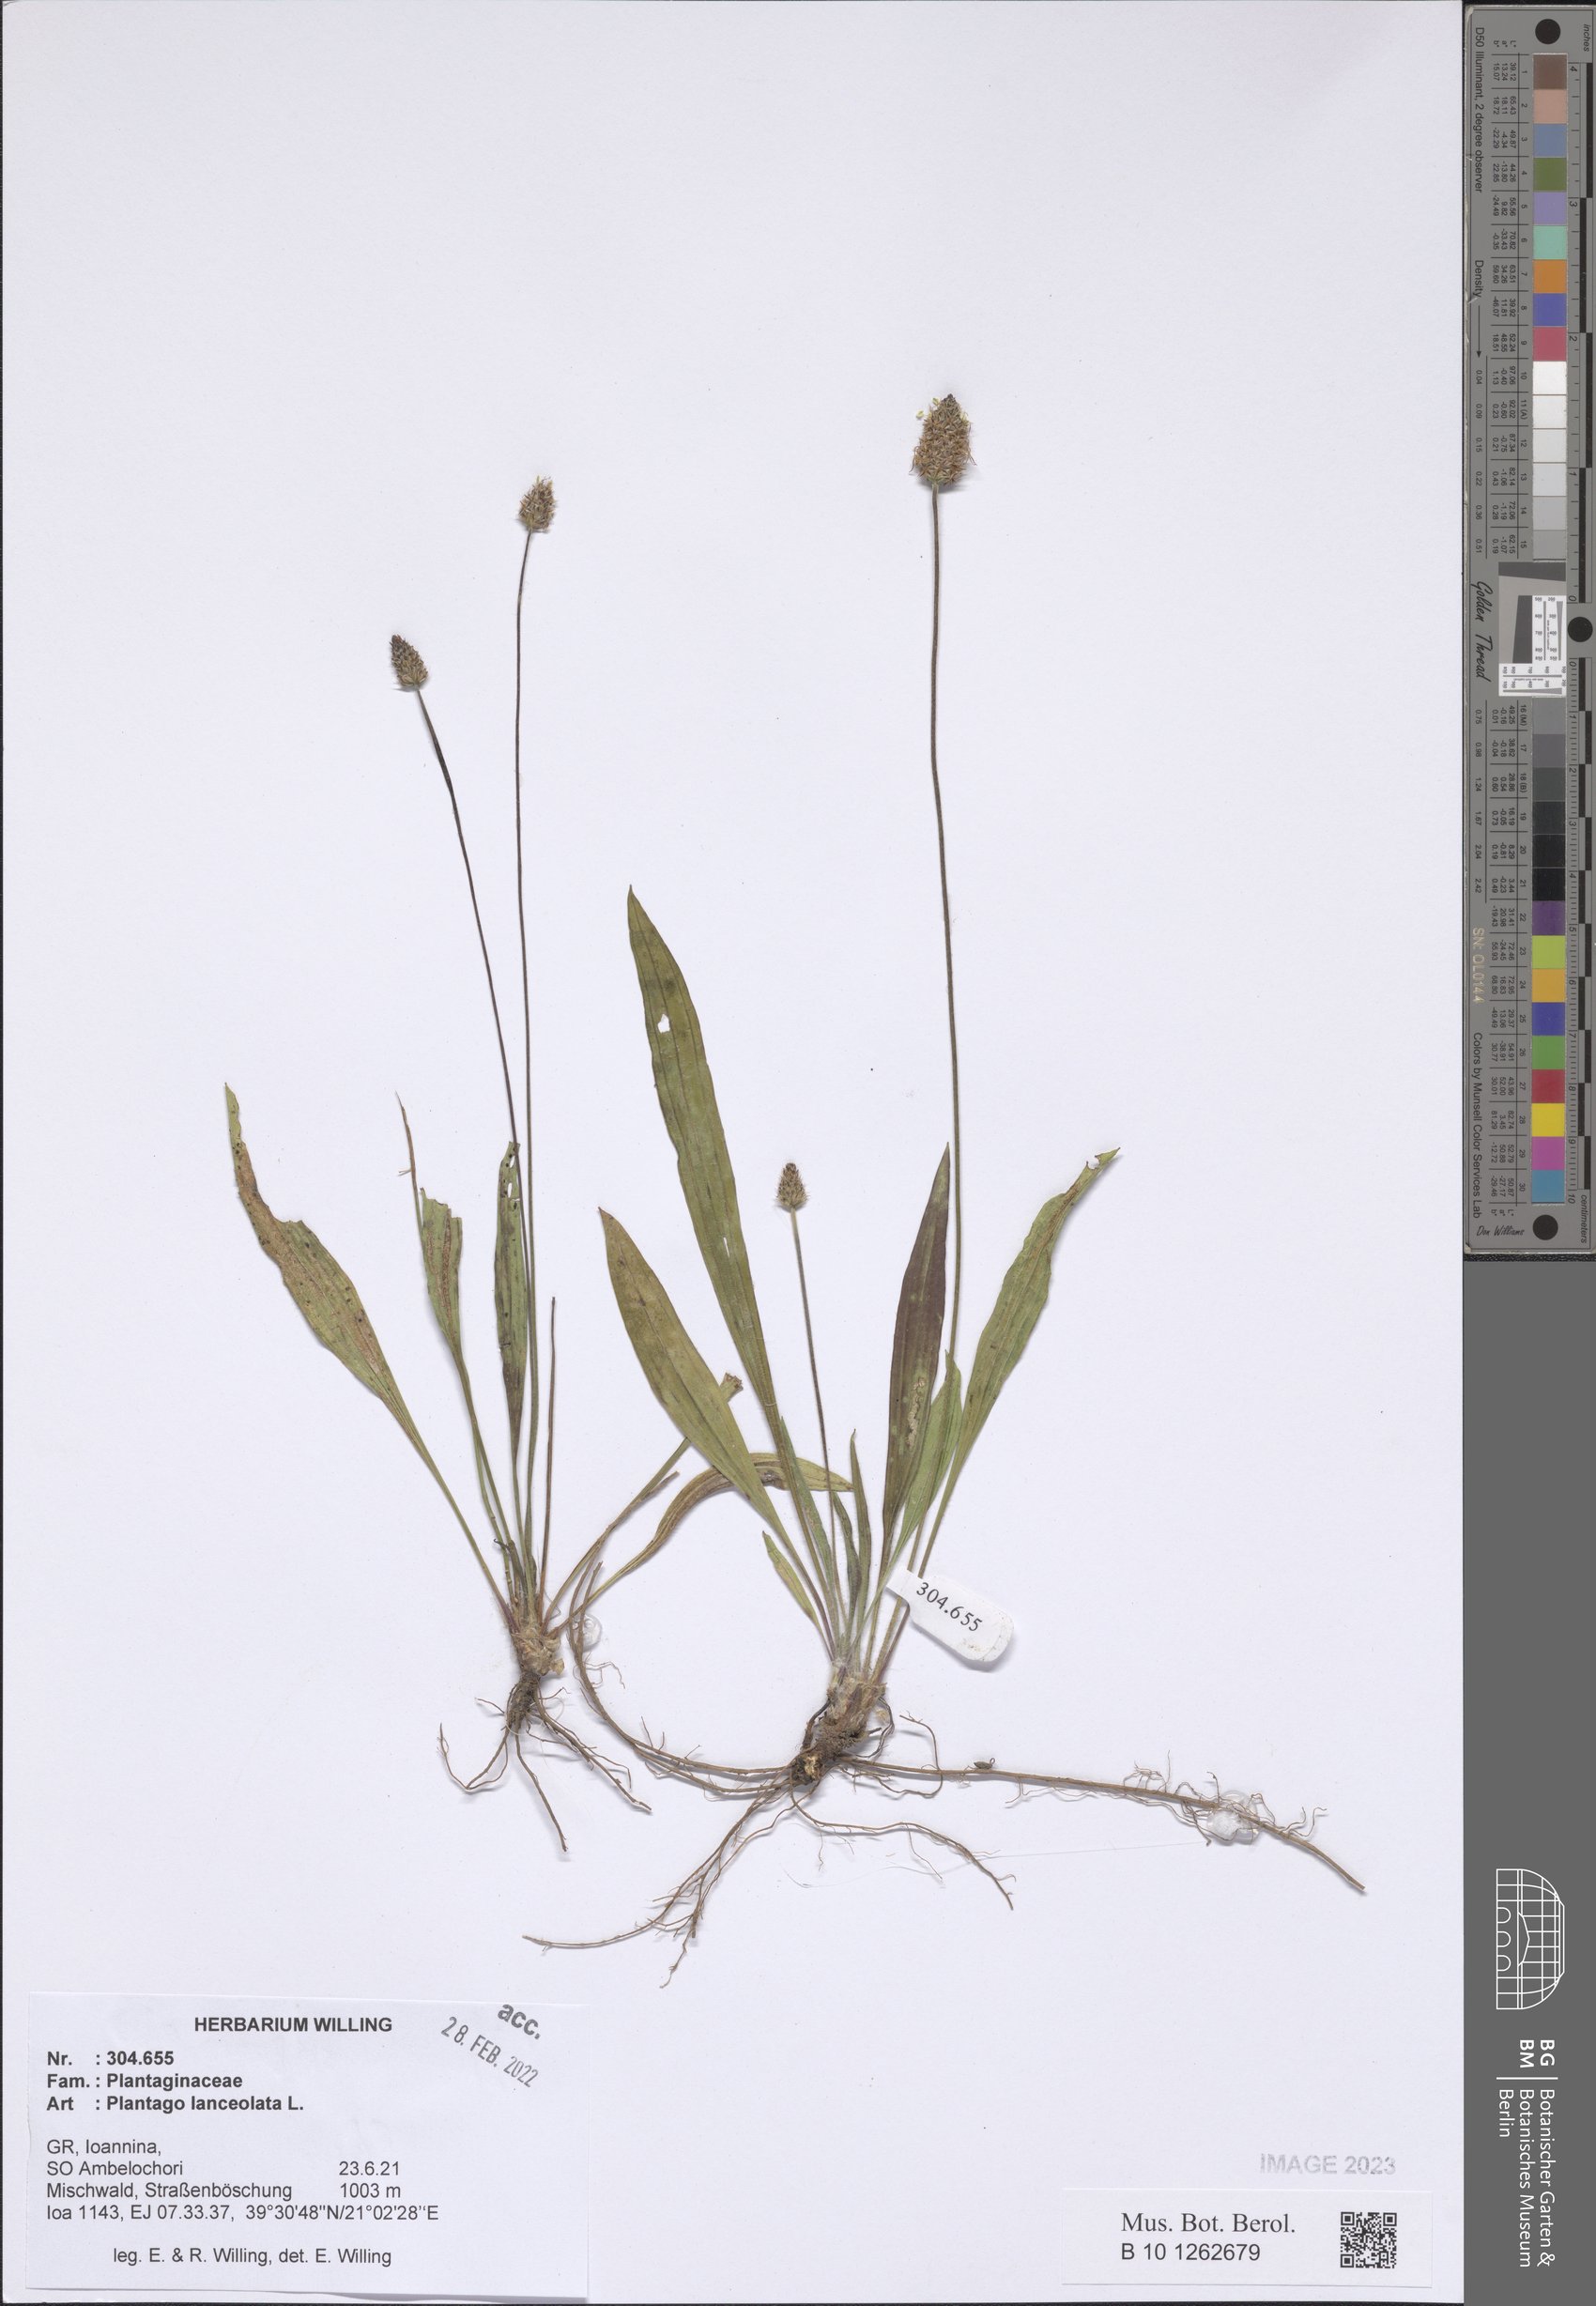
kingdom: Plantae
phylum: Tracheophyta
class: Magnoliopsida
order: Lamiales
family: Plantaginaceae
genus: Plantago
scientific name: Plantago lanceolata
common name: Ribwort plantain
